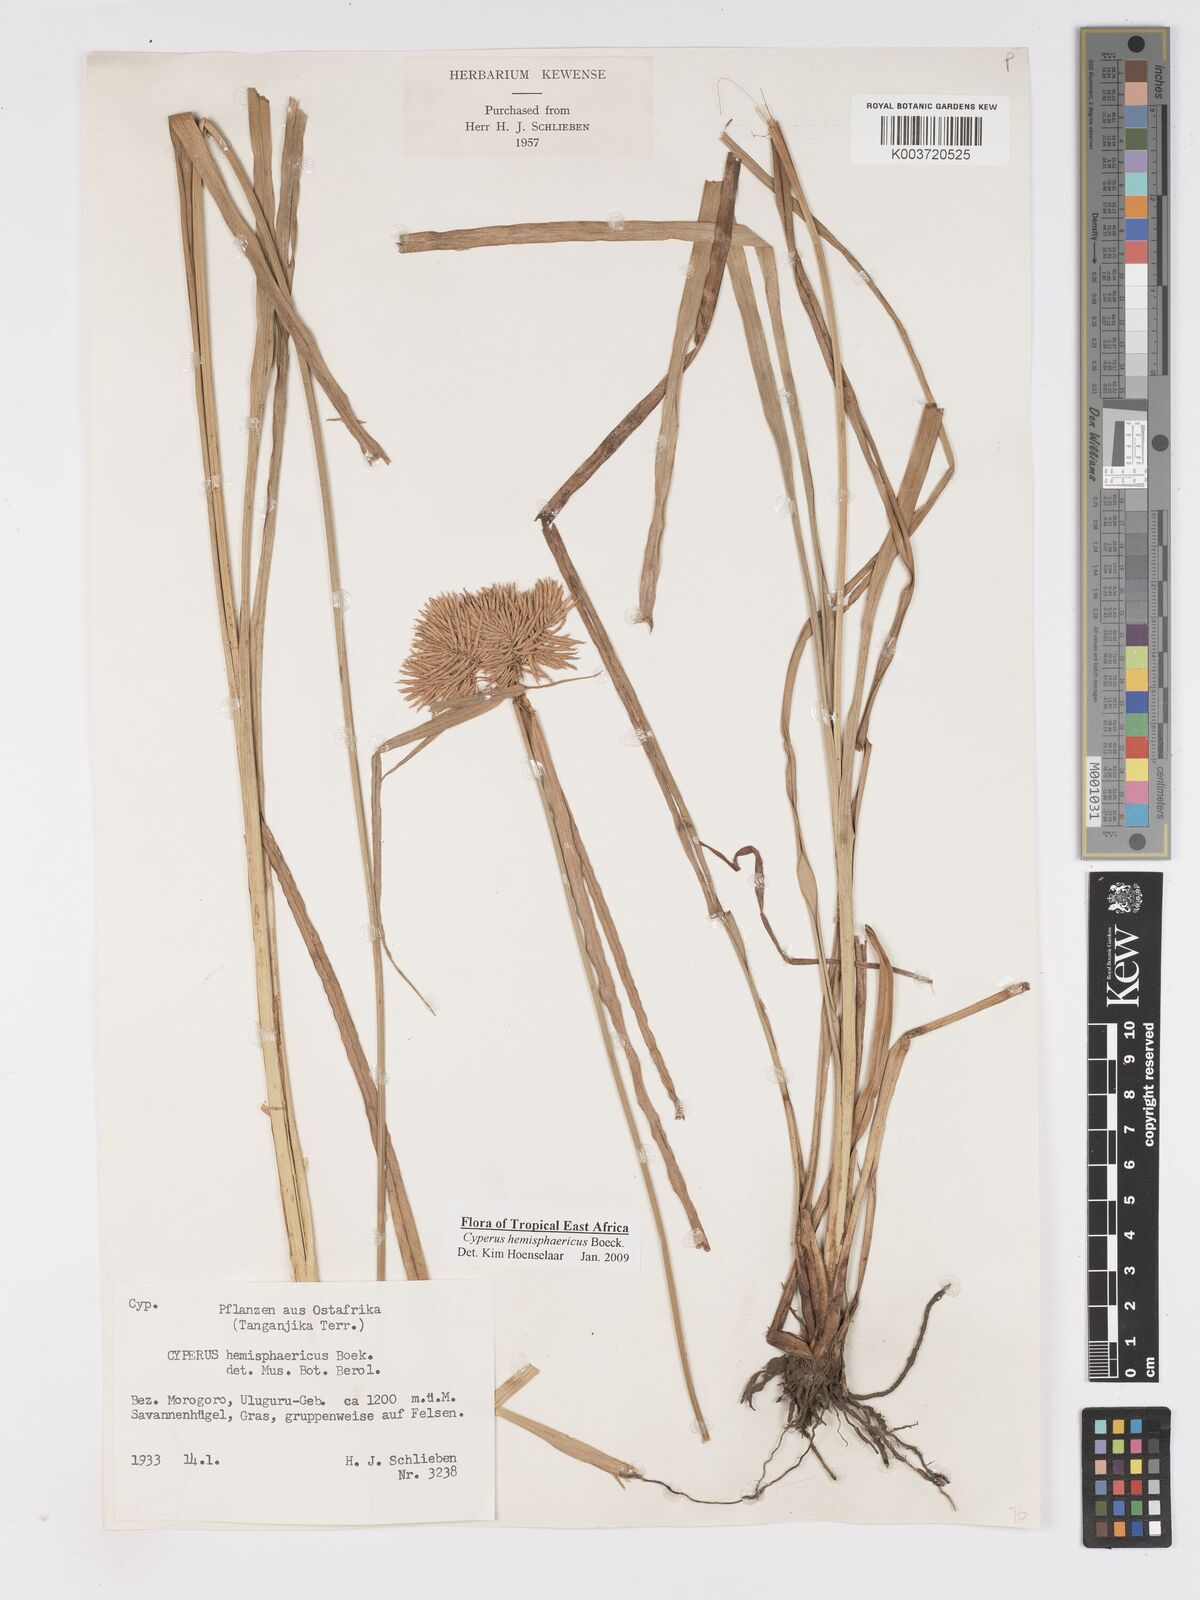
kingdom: Plantae
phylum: Tracheophyta
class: Liliopsida
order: Poales
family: Cyperaceae
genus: Cyperus
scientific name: Cyperus hemisphaericus
